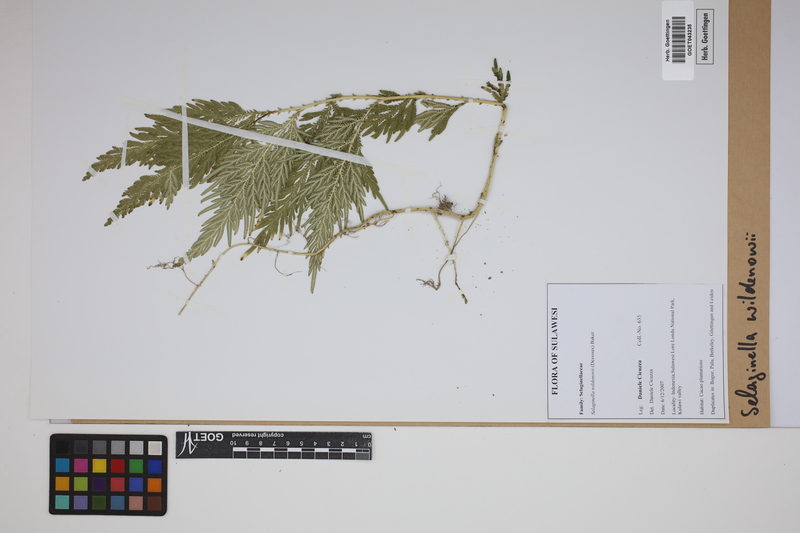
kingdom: Plantae
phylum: Tracheophyta
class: Lycopodiopsida
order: Selaginellales
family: Selaginellaceae
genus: Selaginella
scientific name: Selaginella willdenowii
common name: Willdenow's spikemoss
